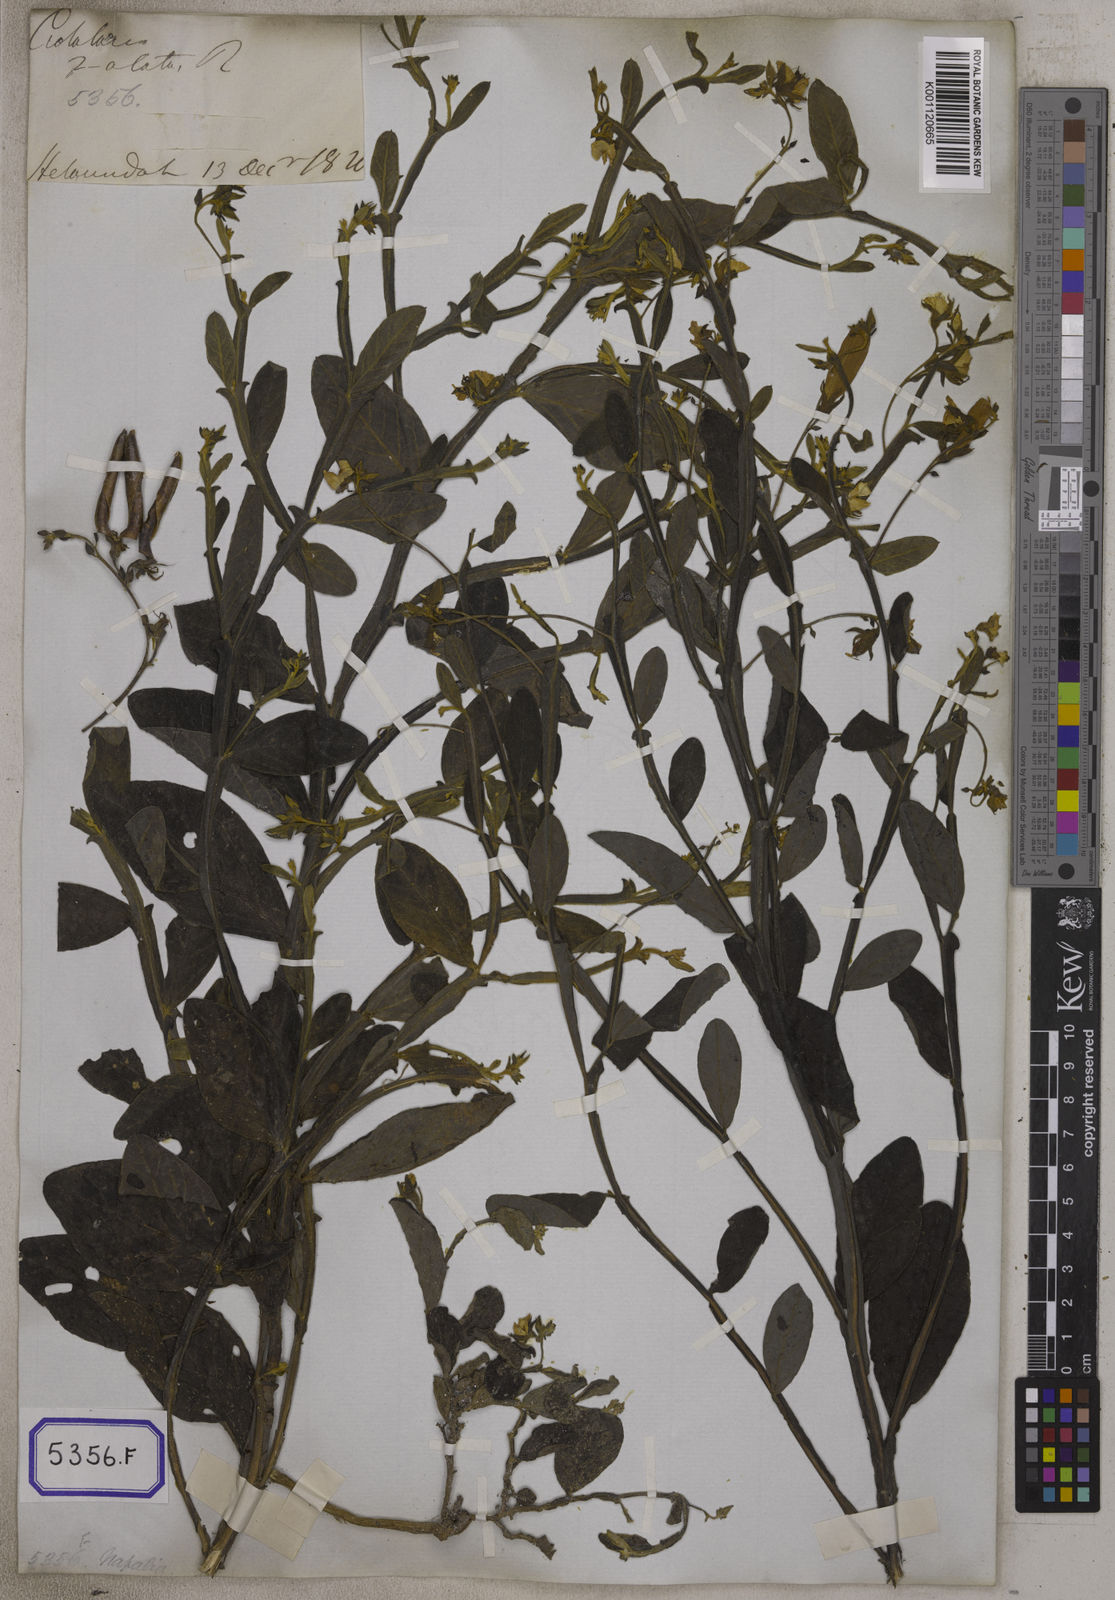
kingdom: Plantae
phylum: Tracheophyta
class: Magnoliopsida
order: Fabales
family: Fabaceae
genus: Crotalaria
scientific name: Crotalaria alata
